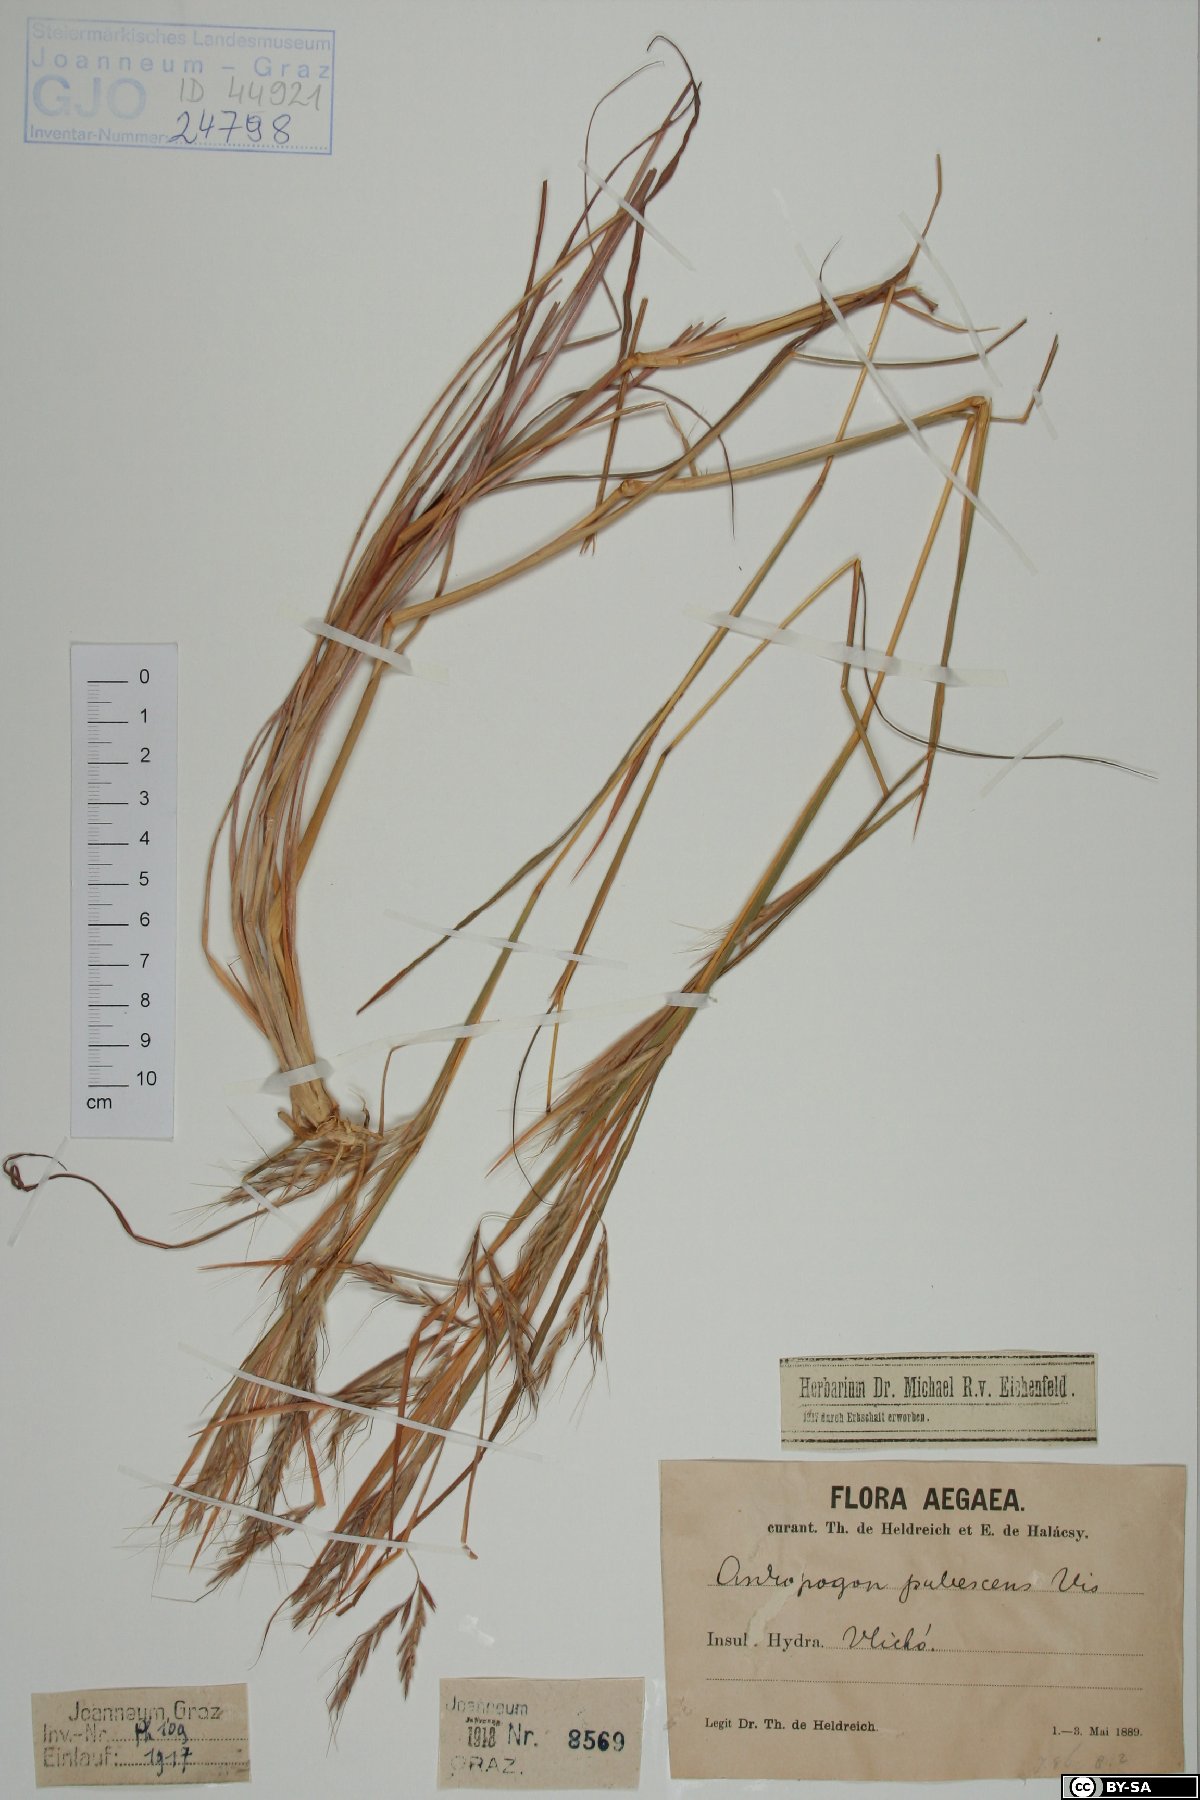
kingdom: Plantae
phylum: Tracheophyta
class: Liliopsida
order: Poales
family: Poaceae
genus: Hyparrhenia
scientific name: Hyparrhenia hirta
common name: Thatching grass
